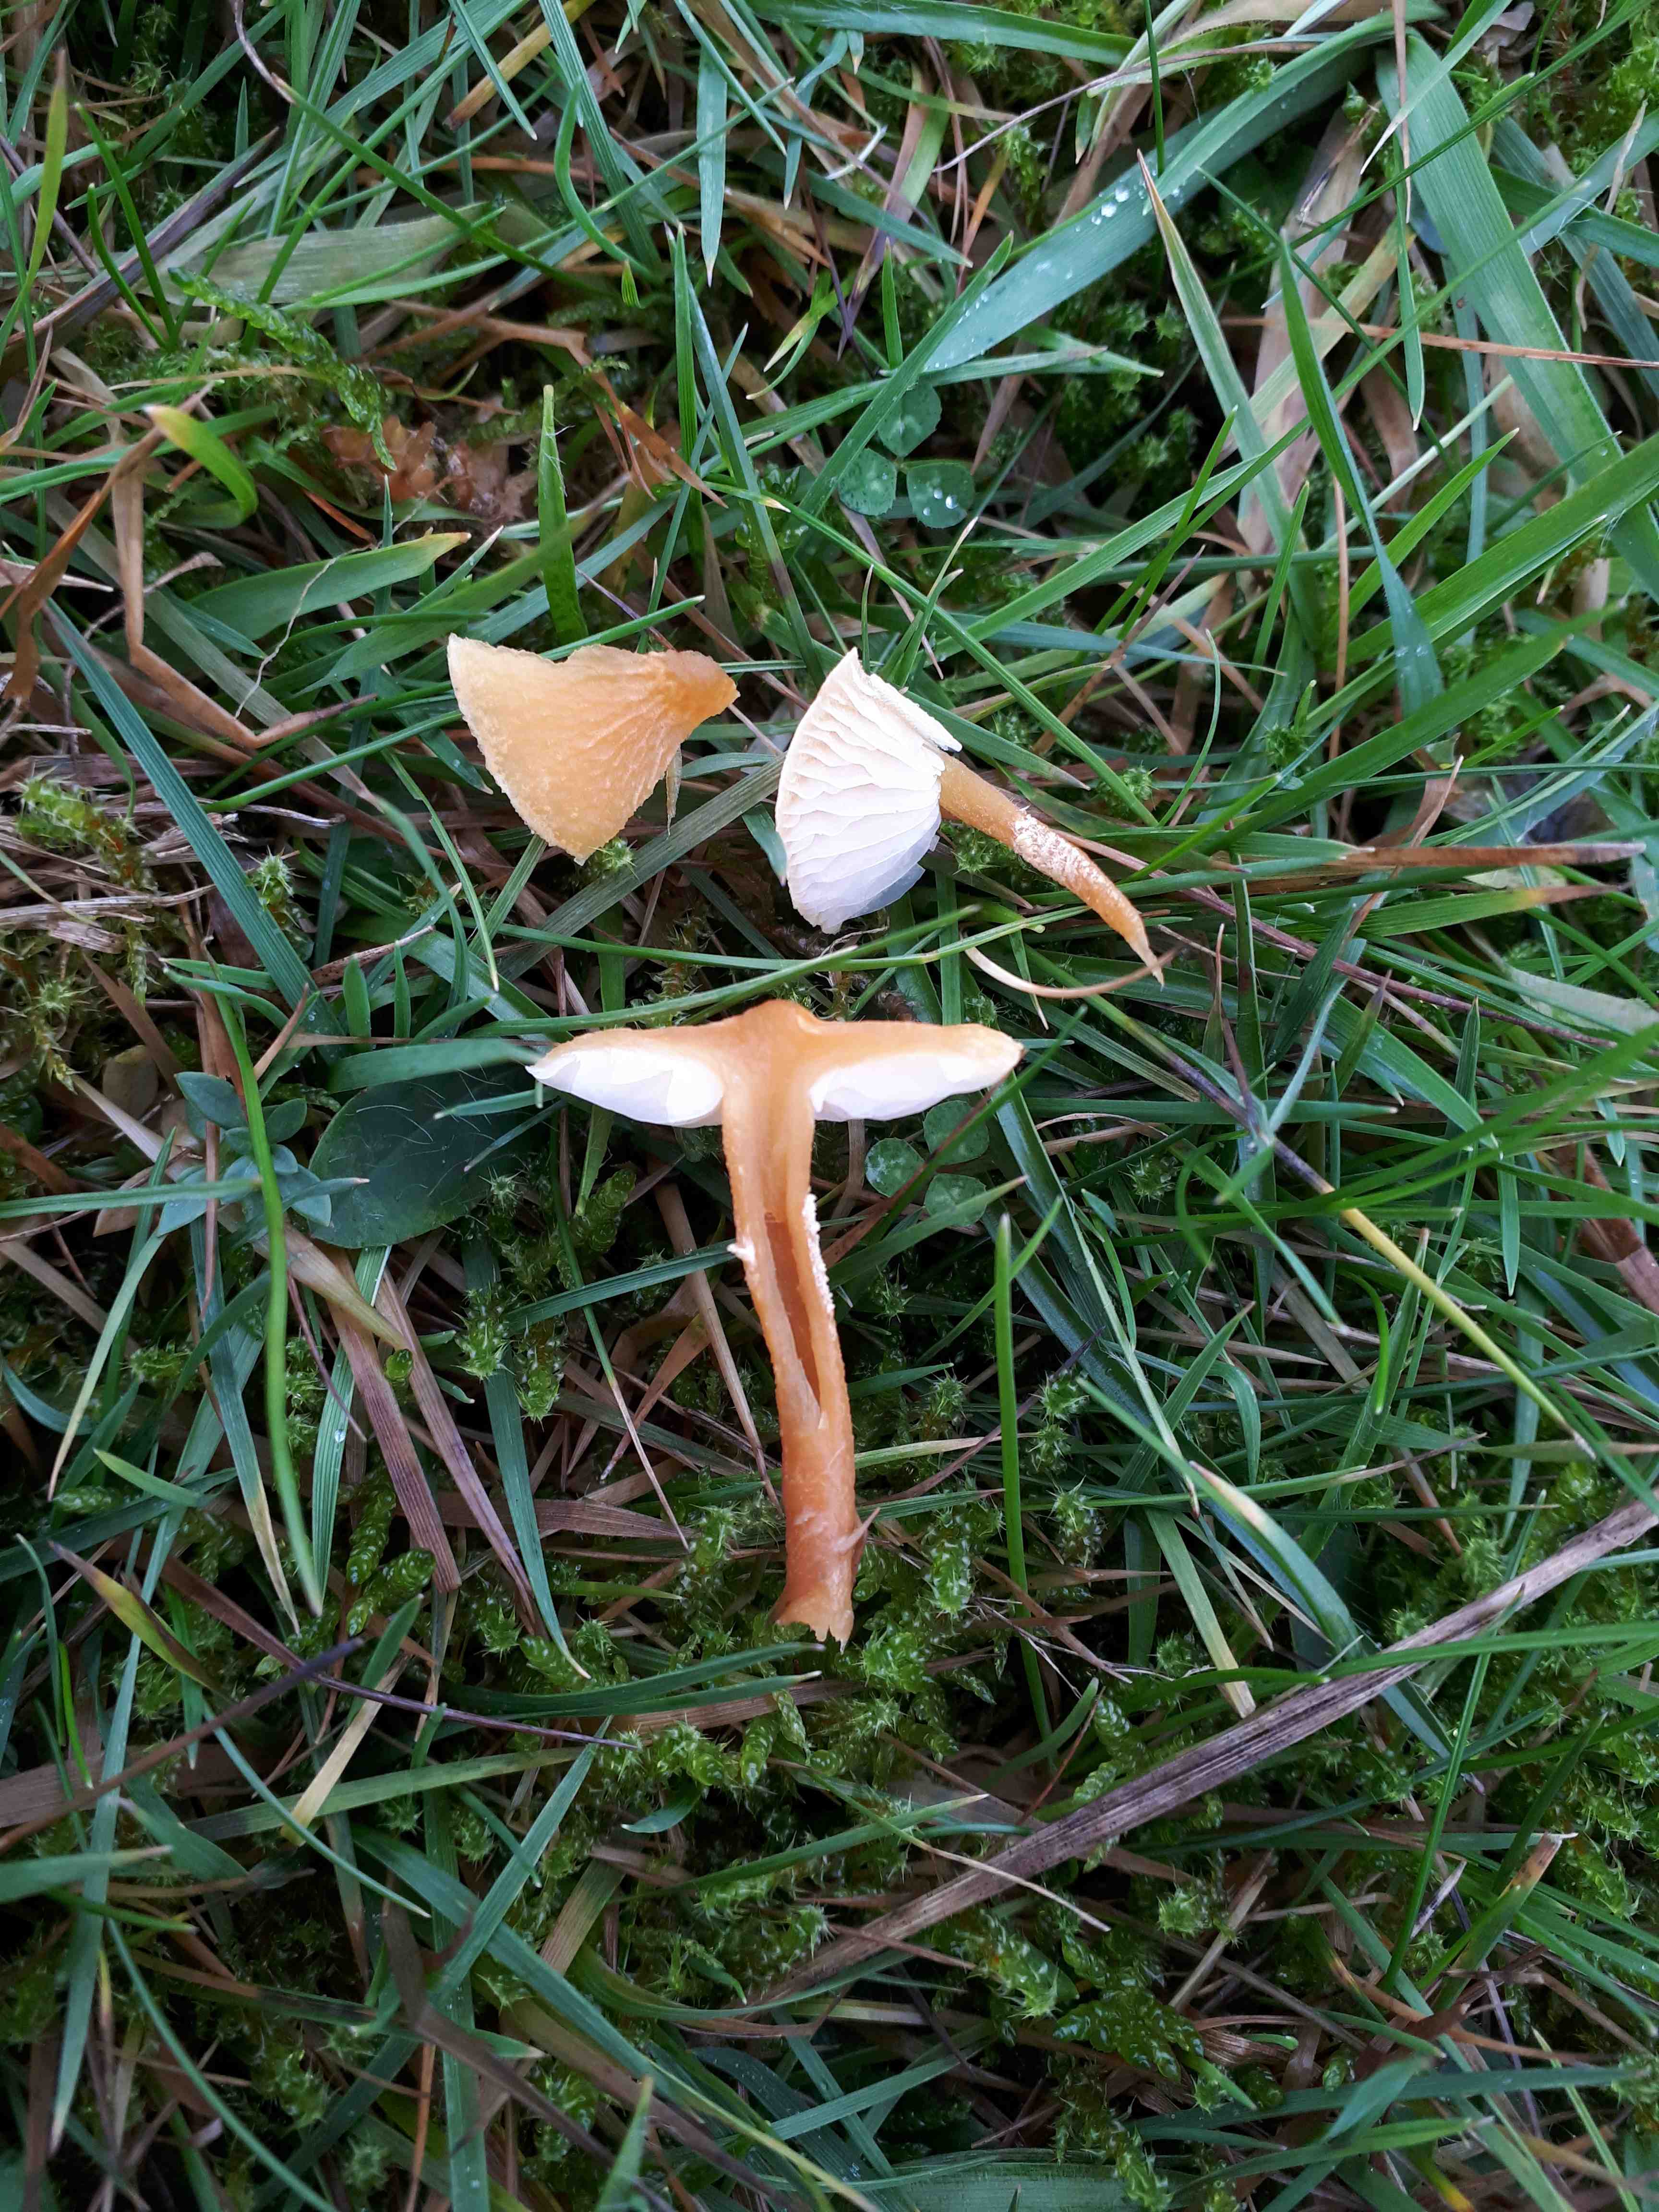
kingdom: Fungi
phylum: Basidiomycota
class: Agaricomycetes
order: Agaricales
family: Tricholomataceae
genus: Cystoderma
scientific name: Cystoderma amianthinum
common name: okkergul grynhat
